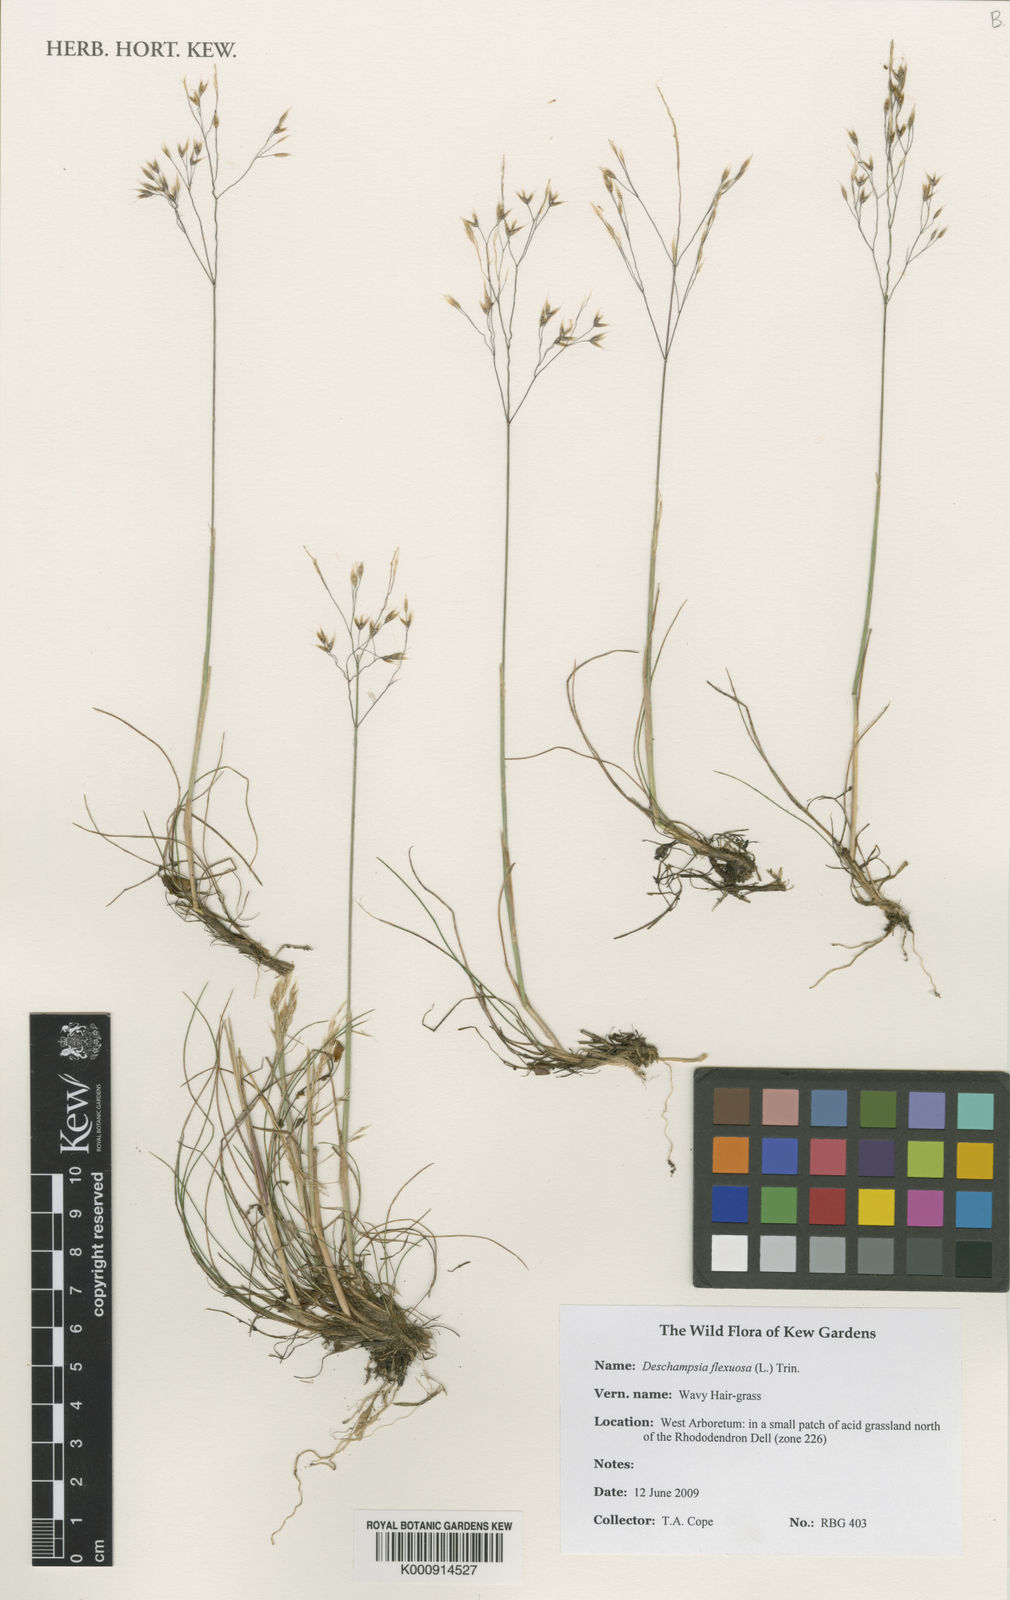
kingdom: Plantae
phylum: Tracheophyta
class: Liliopsida
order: Poales
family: Poaceae
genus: Avenella
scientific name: Avenella flexuosa
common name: Wavy hairgrass
